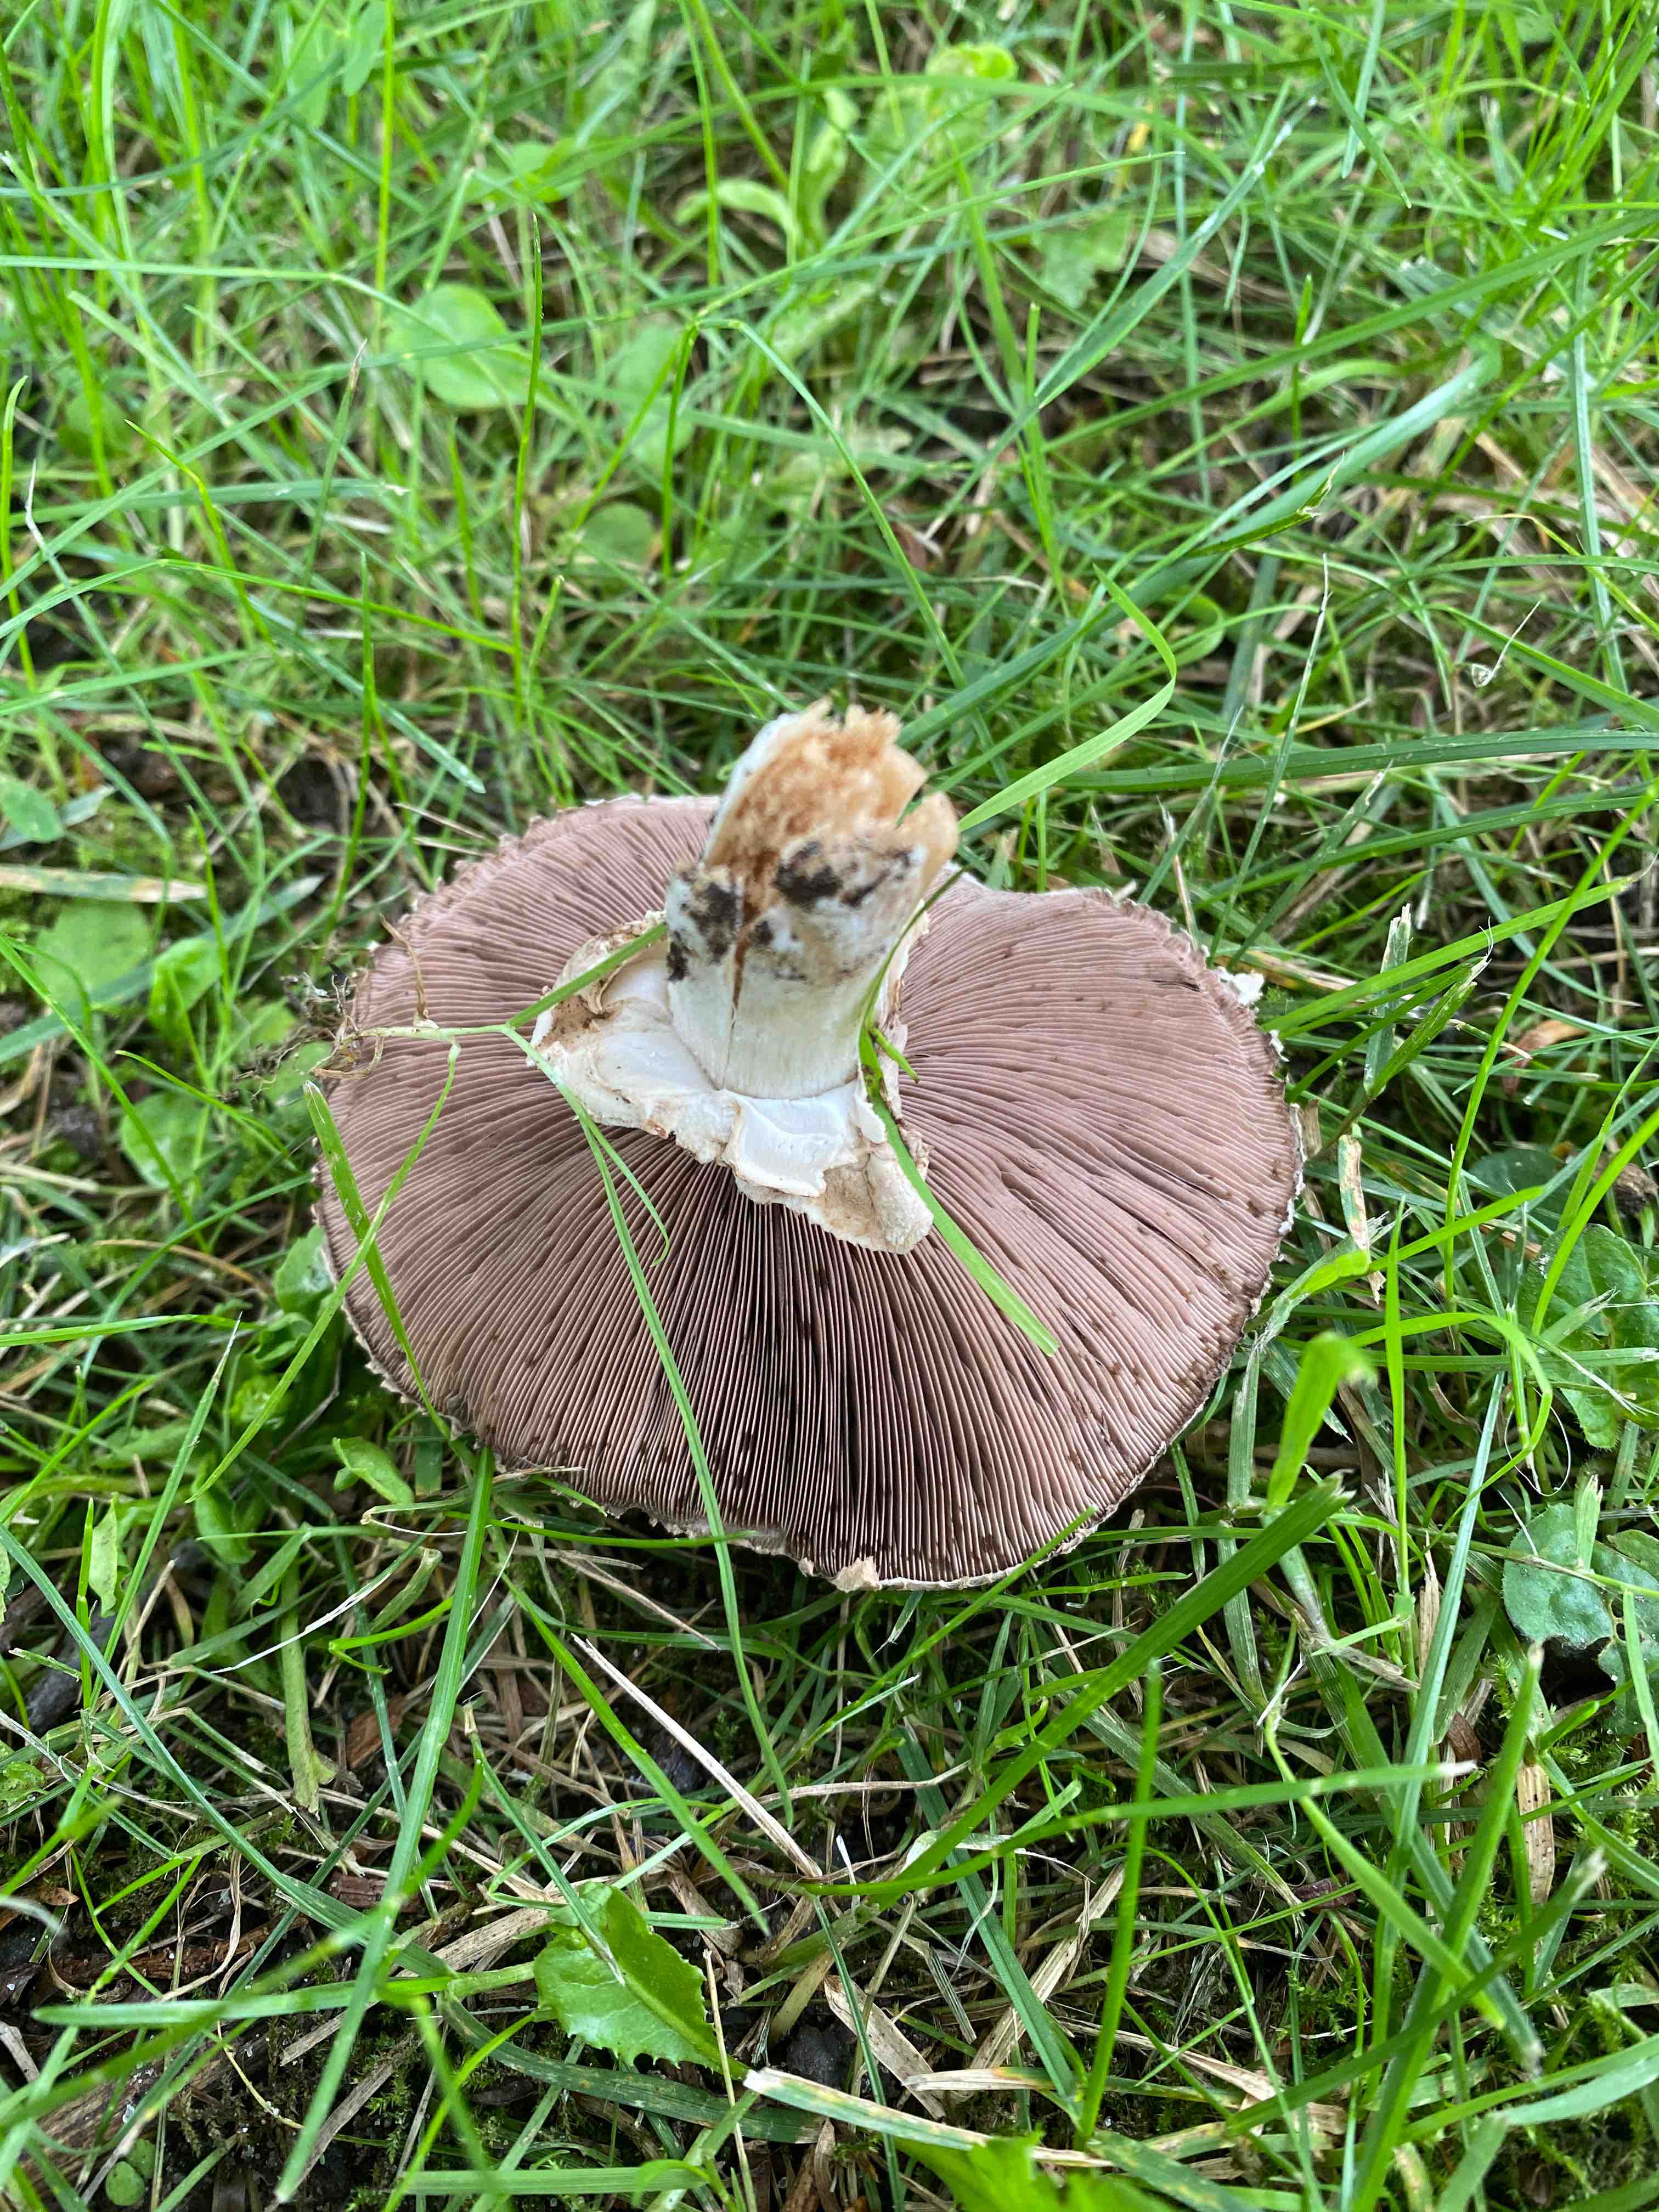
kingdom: Fungi
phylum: Basidiomycota
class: Agaricomycetes
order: Agaricales
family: Agaricaceae
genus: Agaricus
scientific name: Agaricus
